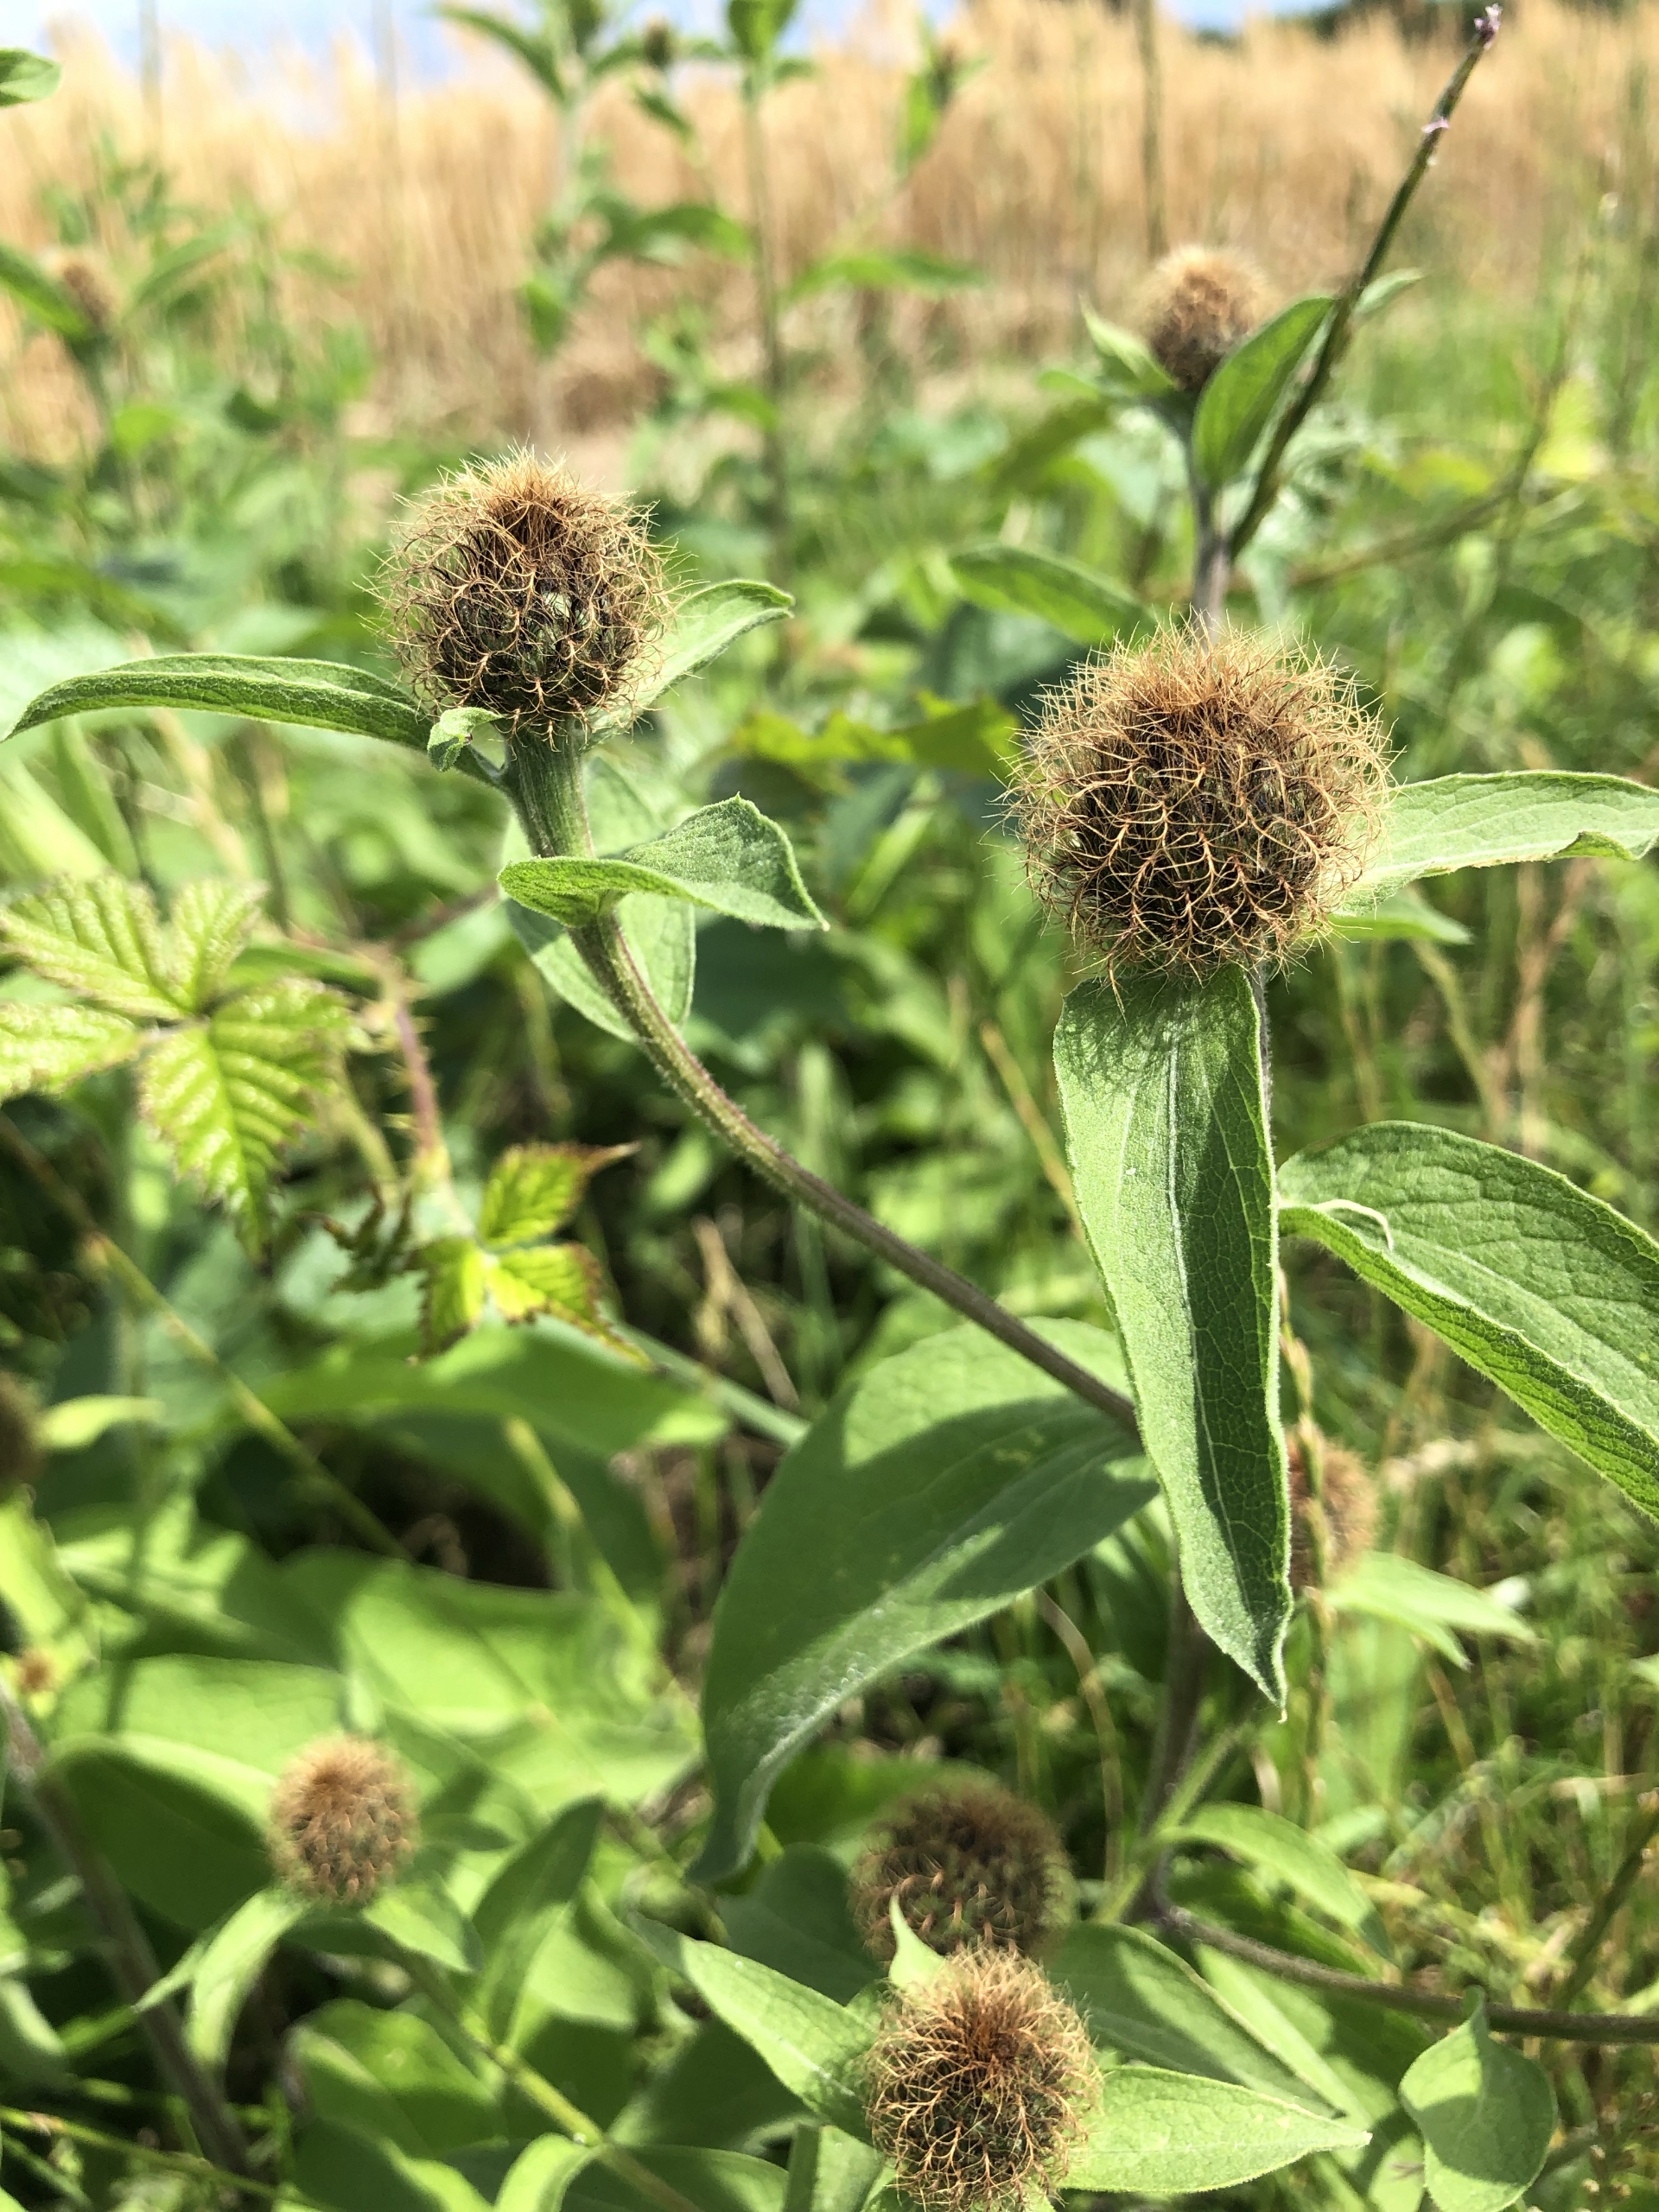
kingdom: Plantae
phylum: Tracheophyta
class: Magnoliopsida
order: Asterales
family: Asteraceae
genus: Centaurea
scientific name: Centaurea pseudophrygia
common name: Fjer-knopurt
